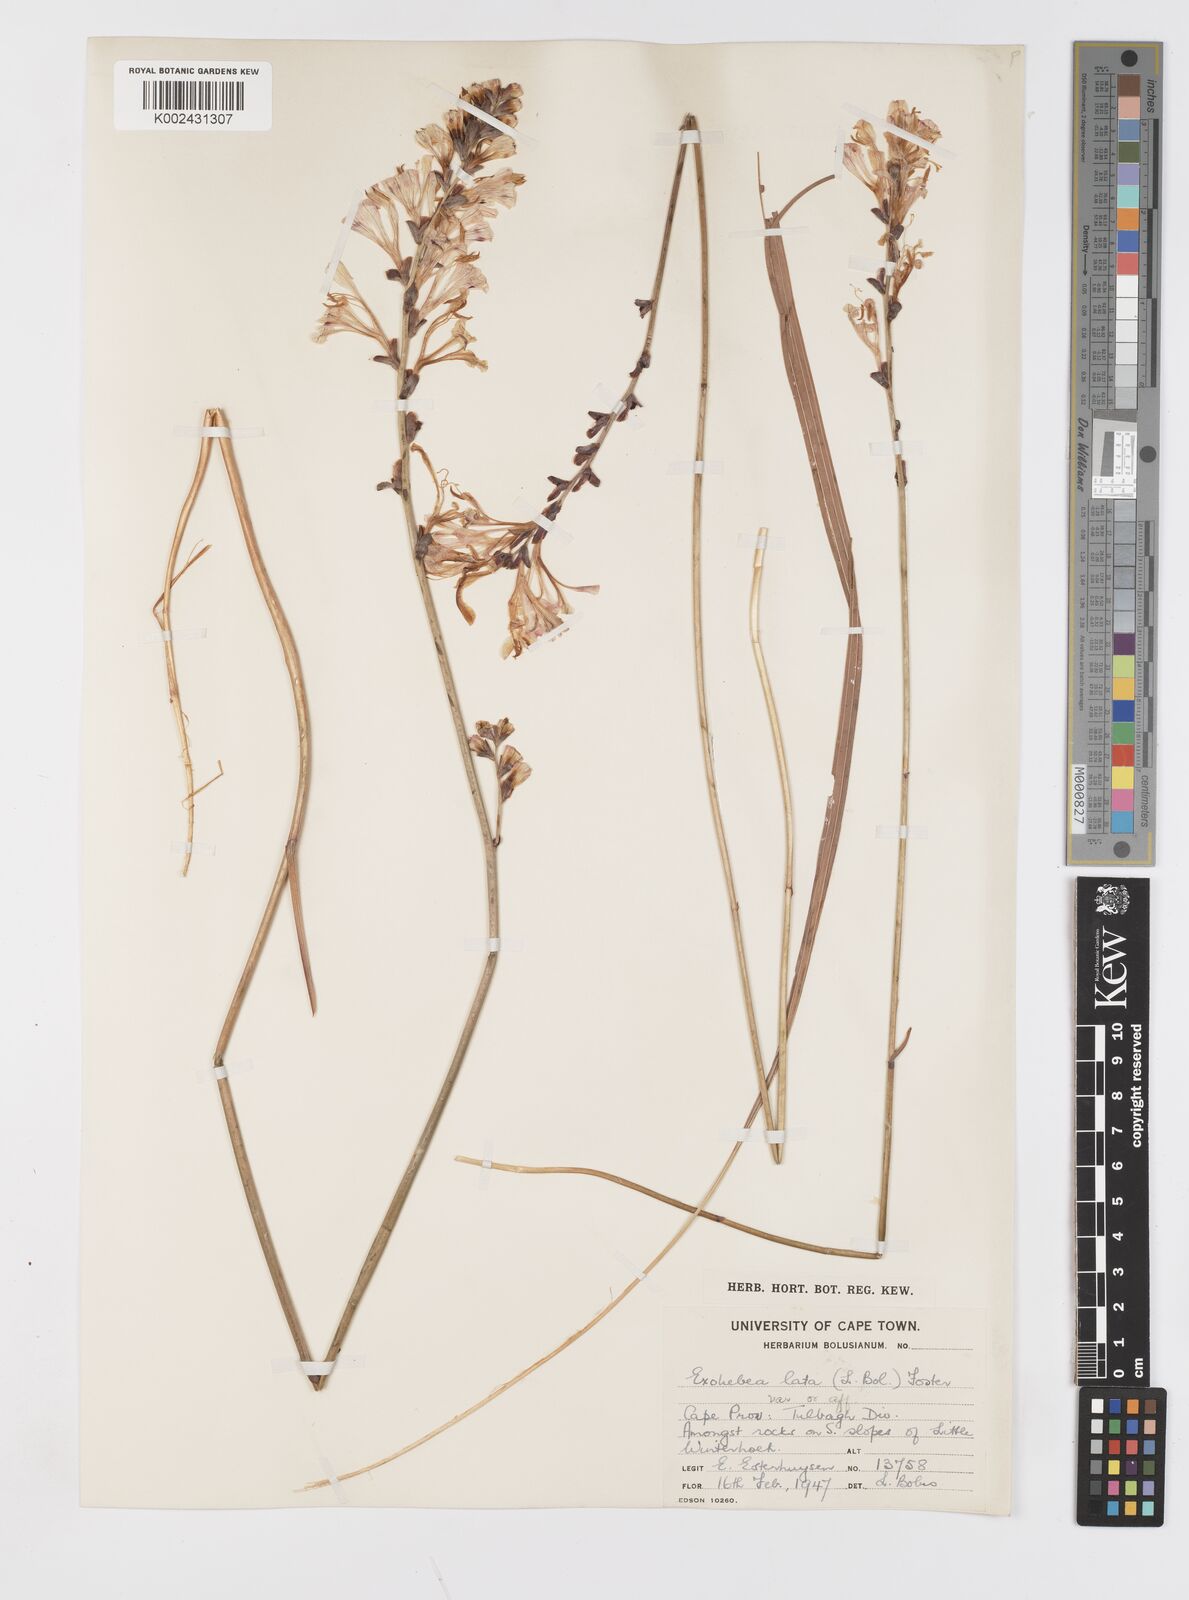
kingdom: Plantae
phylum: Tracheophyta
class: Liliopsida
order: Asparagales
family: Iridaceae
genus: Tritoniopsis
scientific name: Tritoniopsis lata
